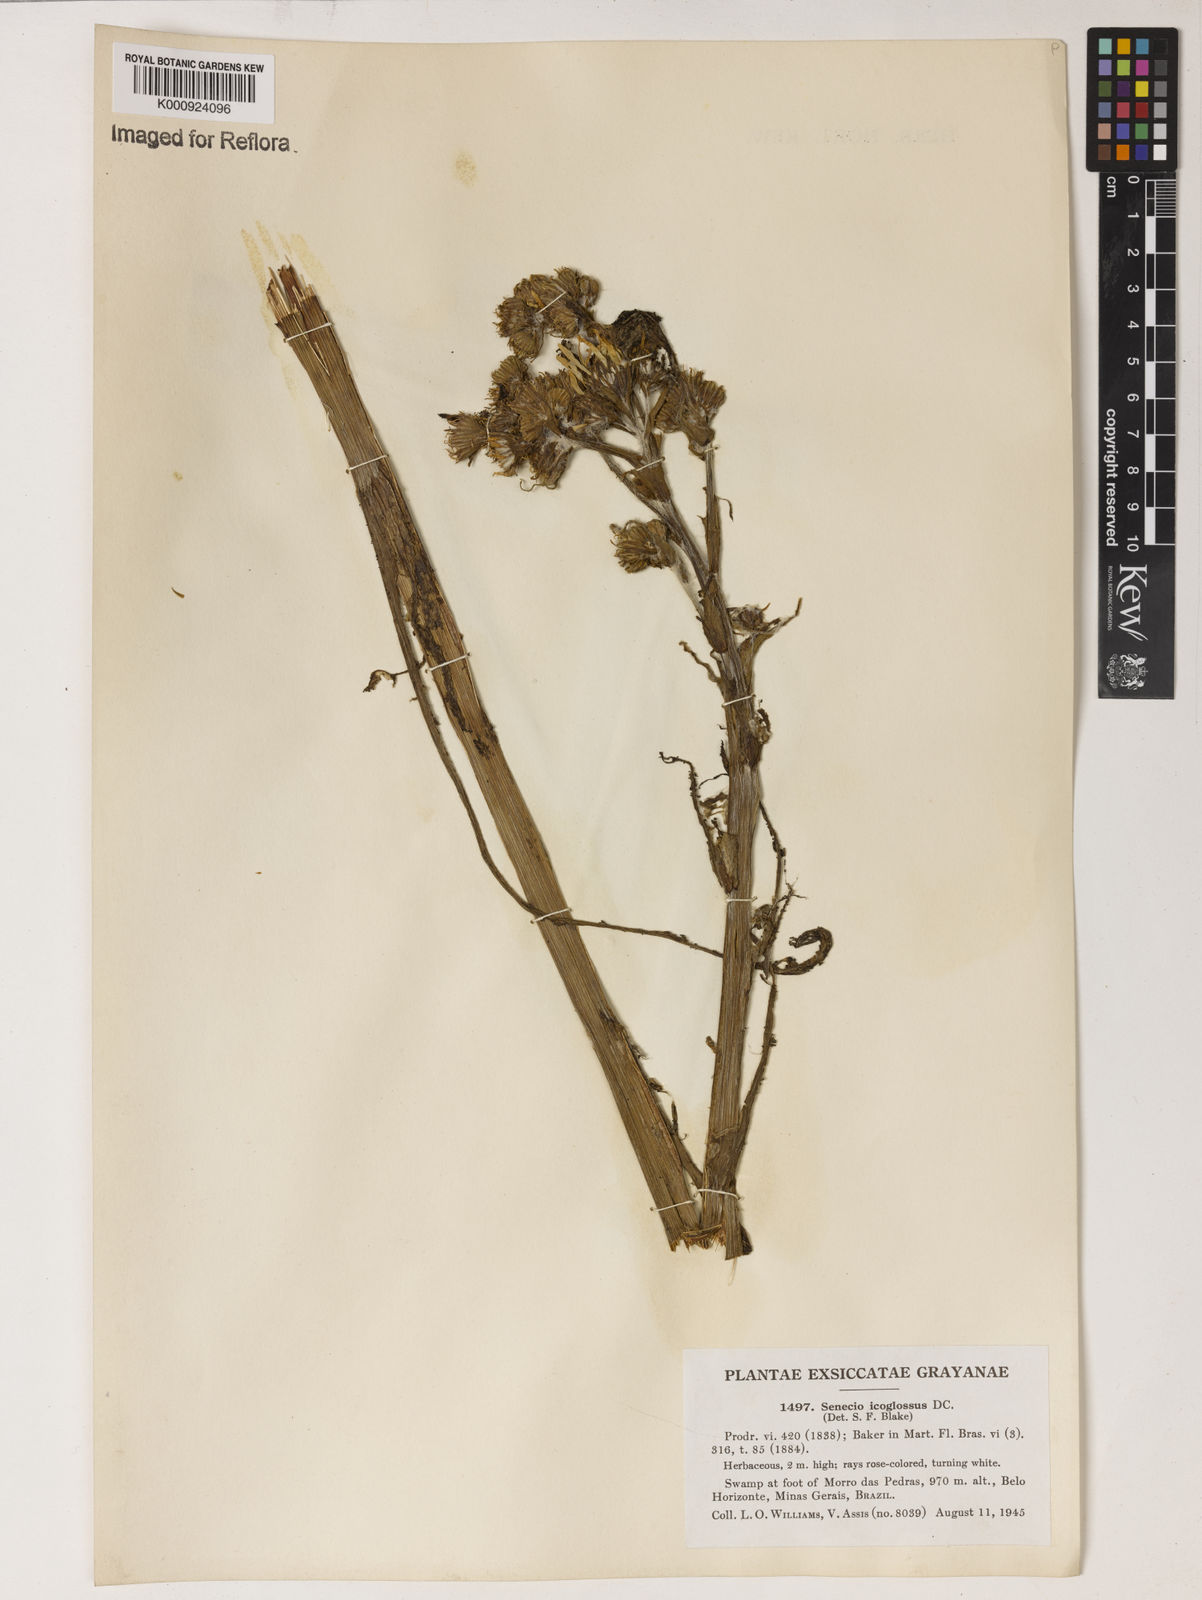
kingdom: Plantae
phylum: Tracheophyta
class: Magnoliopsida
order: Asterales
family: Asteraceae
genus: Senecio
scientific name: Senecio icoglossus
